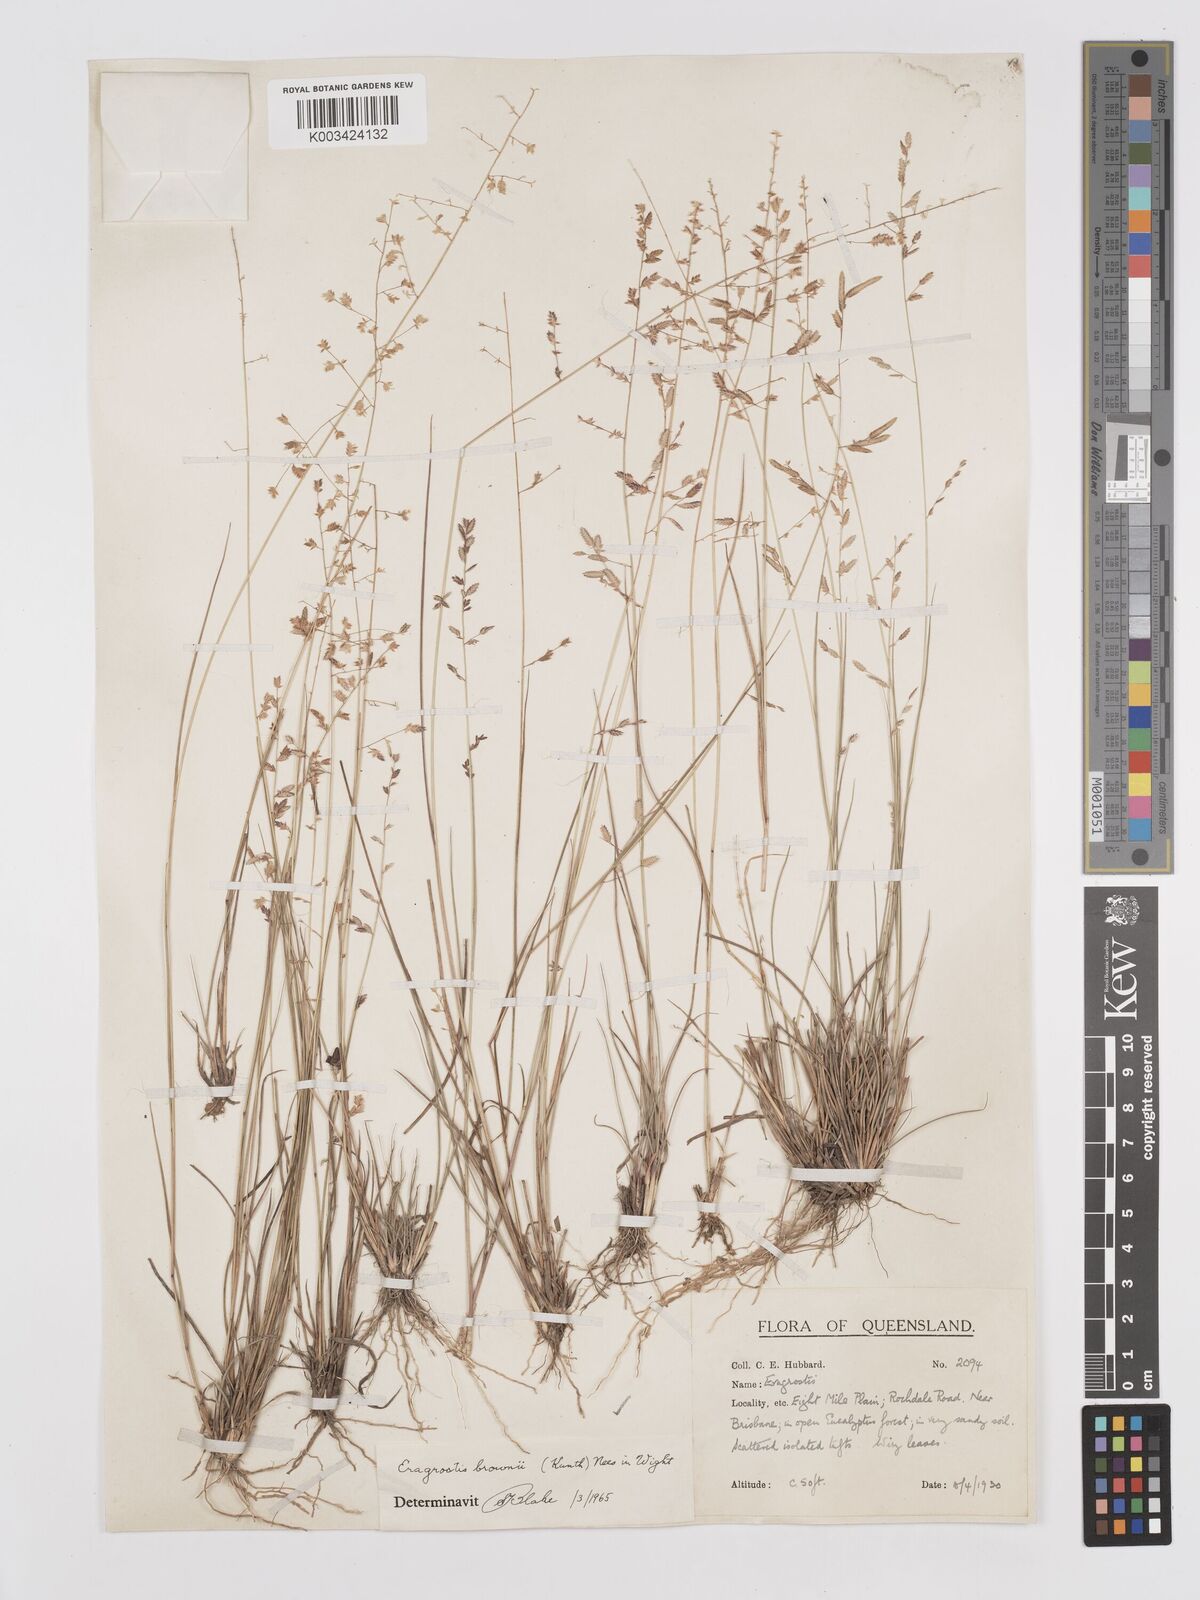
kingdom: Plantae
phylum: Tracheophyta
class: Liliopsida
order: Poales
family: Poaceae
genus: Eragrostis
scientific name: Eragrostis brownii
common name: Lovegrass
